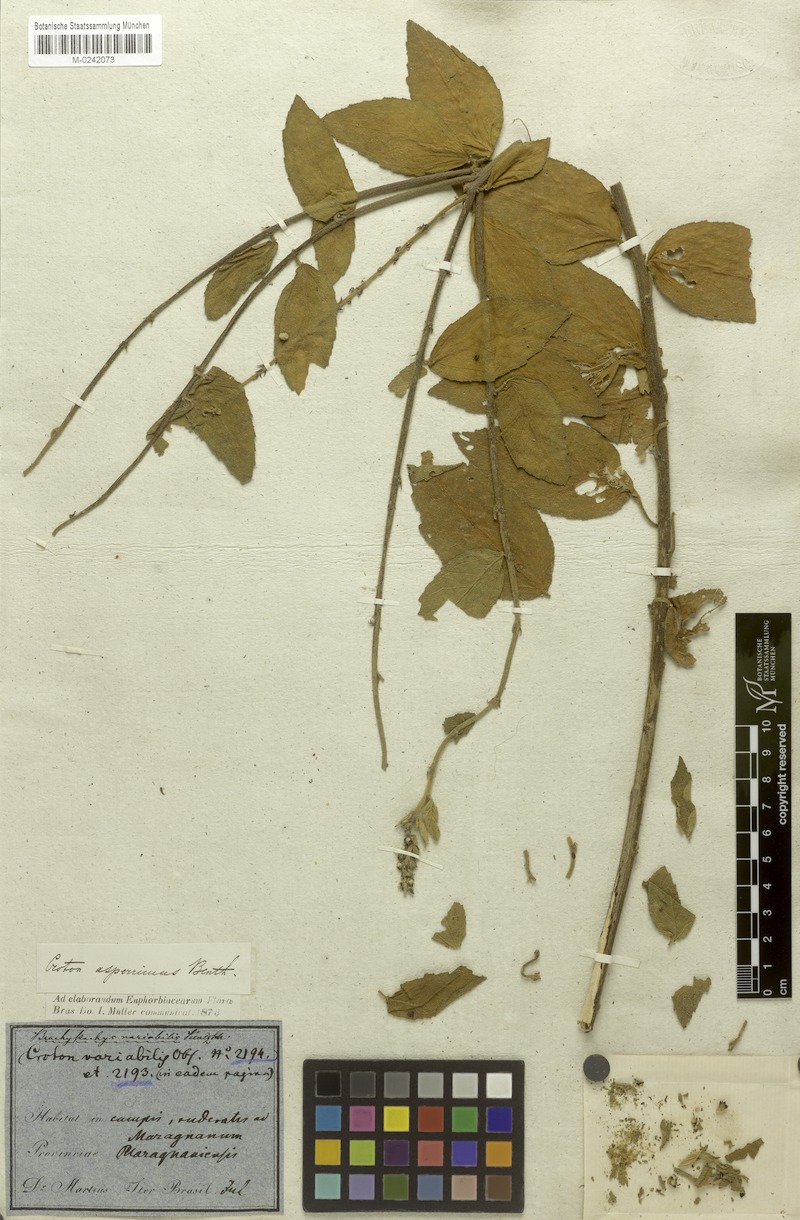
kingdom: Plantae
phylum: Tracheophyta
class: Magnoliopsida
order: Malpighiales
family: Euphorbiaceae
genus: Croton
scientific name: Croton asperrimus
